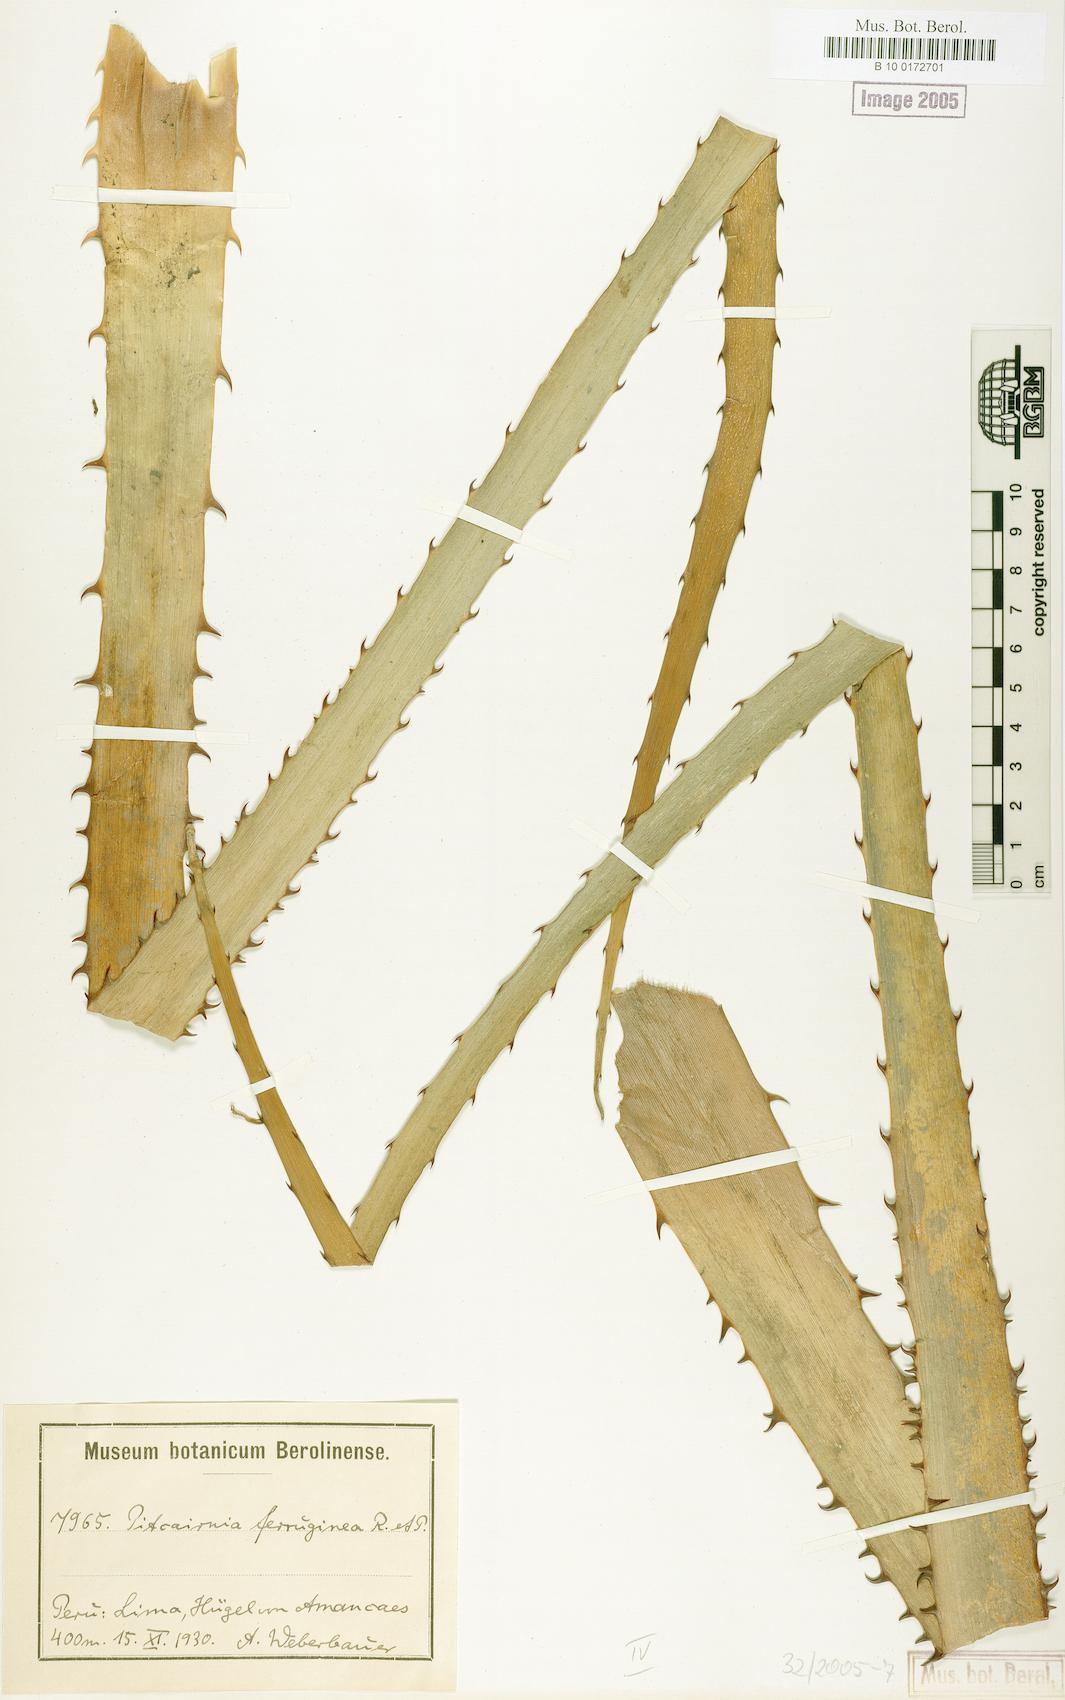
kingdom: Plantae
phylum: Tracheophyta
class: Liliopsida
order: Poales
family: Bromeliaceae
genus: Puya
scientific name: Puya ferruginea
